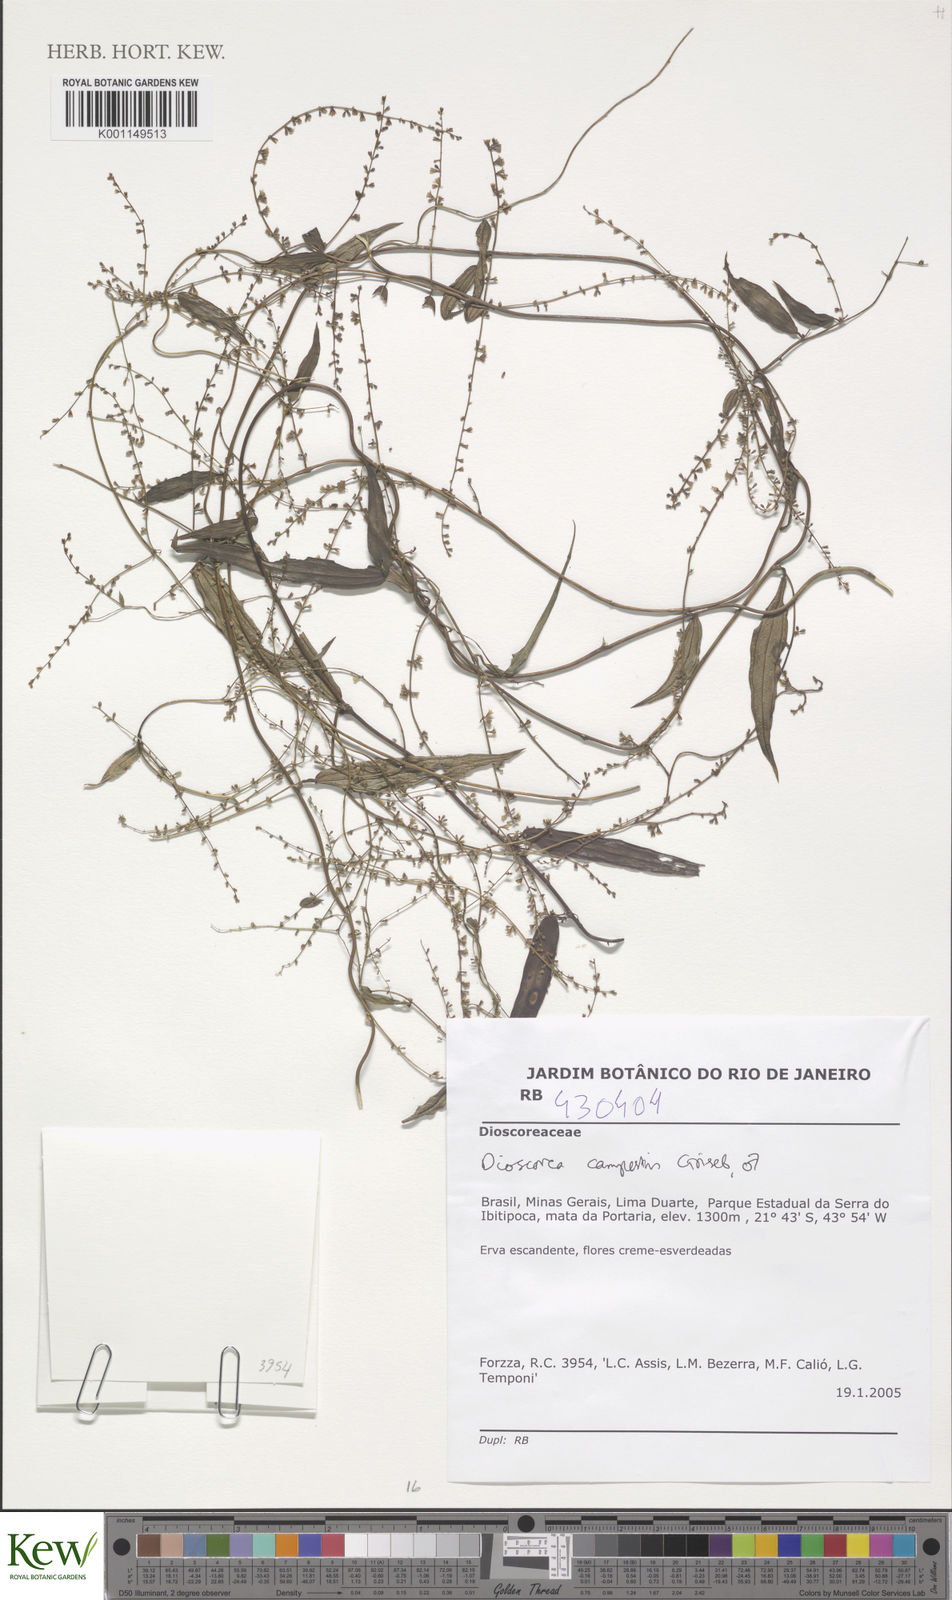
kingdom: Plantae
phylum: Tracheophyta
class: Liliopsida
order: Dioscoreales
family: Dioscoreaceae
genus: Dioscorea
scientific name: Dioscorea campestris
